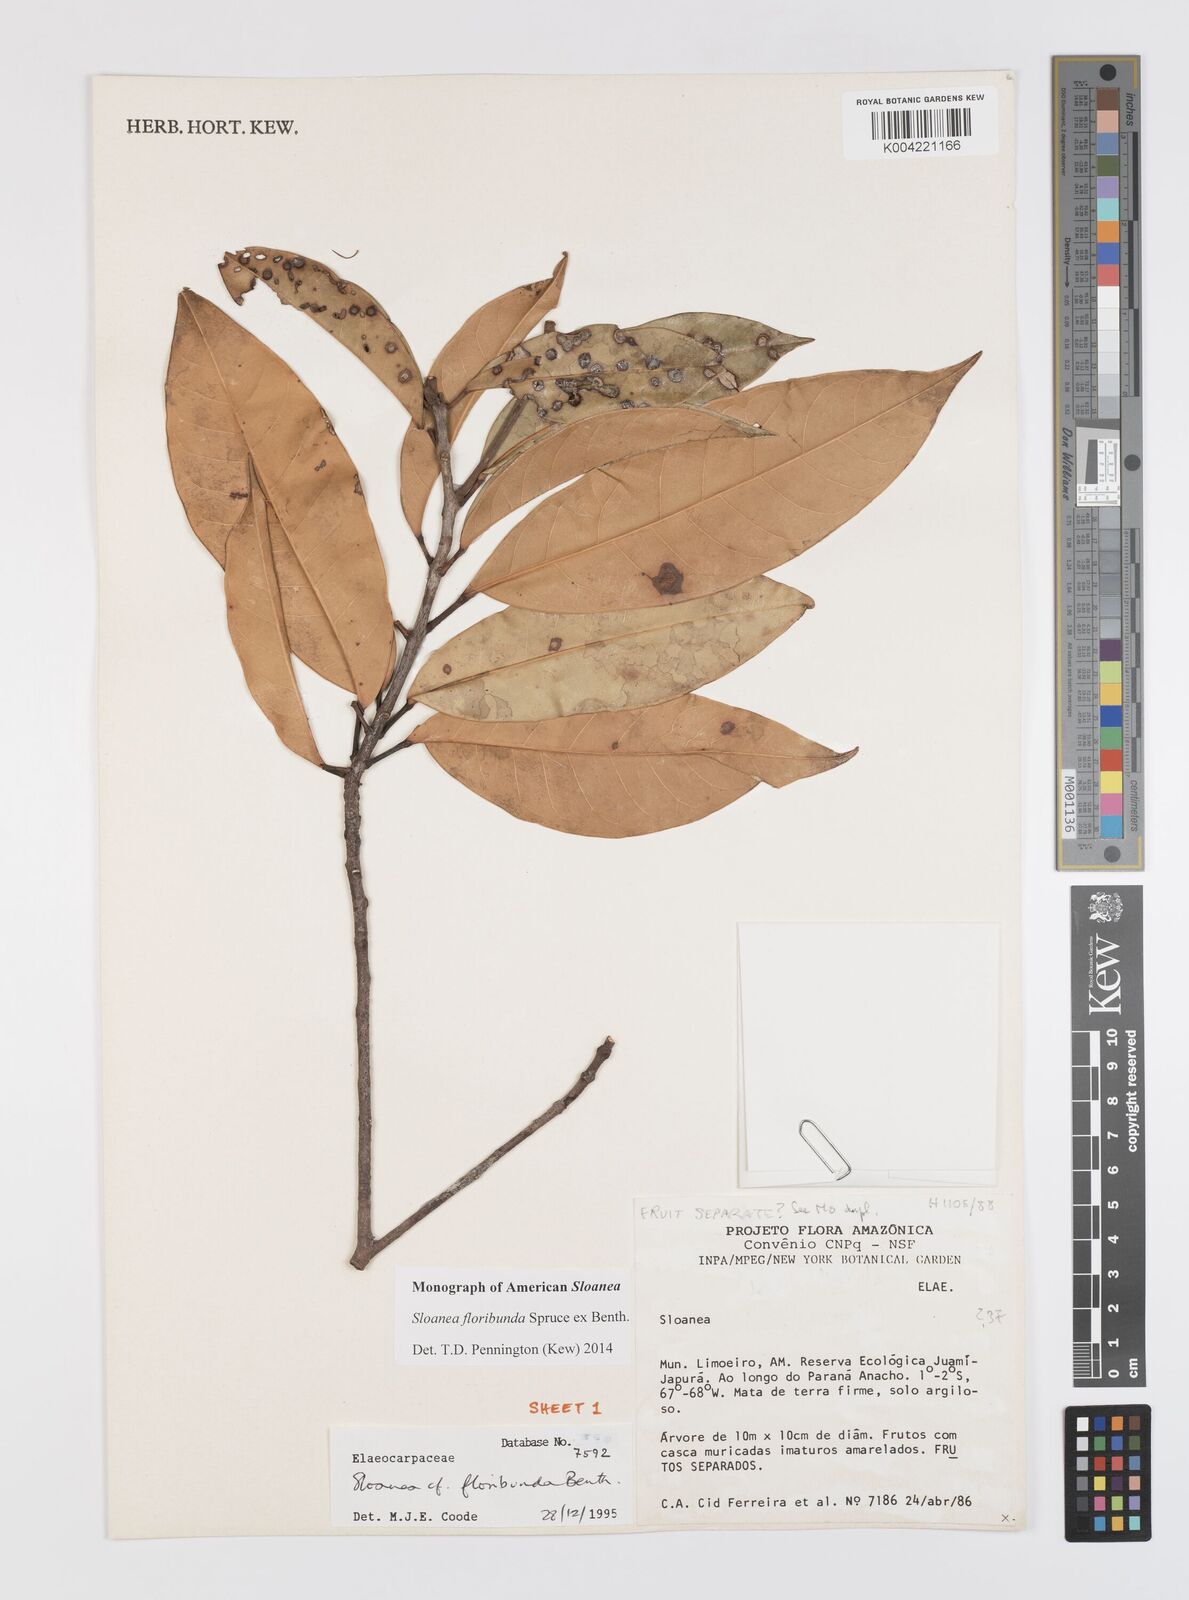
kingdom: Plantae
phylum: Tracheophyta
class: Magnoliopsida
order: Oxalidales
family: Elaeocarpaceae
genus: Sloanea
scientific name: Sloanea floribunda
